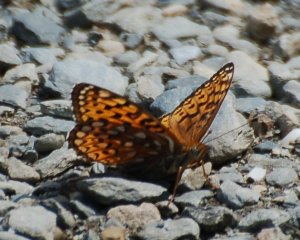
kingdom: Animalia
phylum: Arthropoda
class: Insecta
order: Lepidoptera
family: Nymphalidae
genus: Speyeria
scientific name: Speyeria atlantis
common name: Atlantis Fritillary
